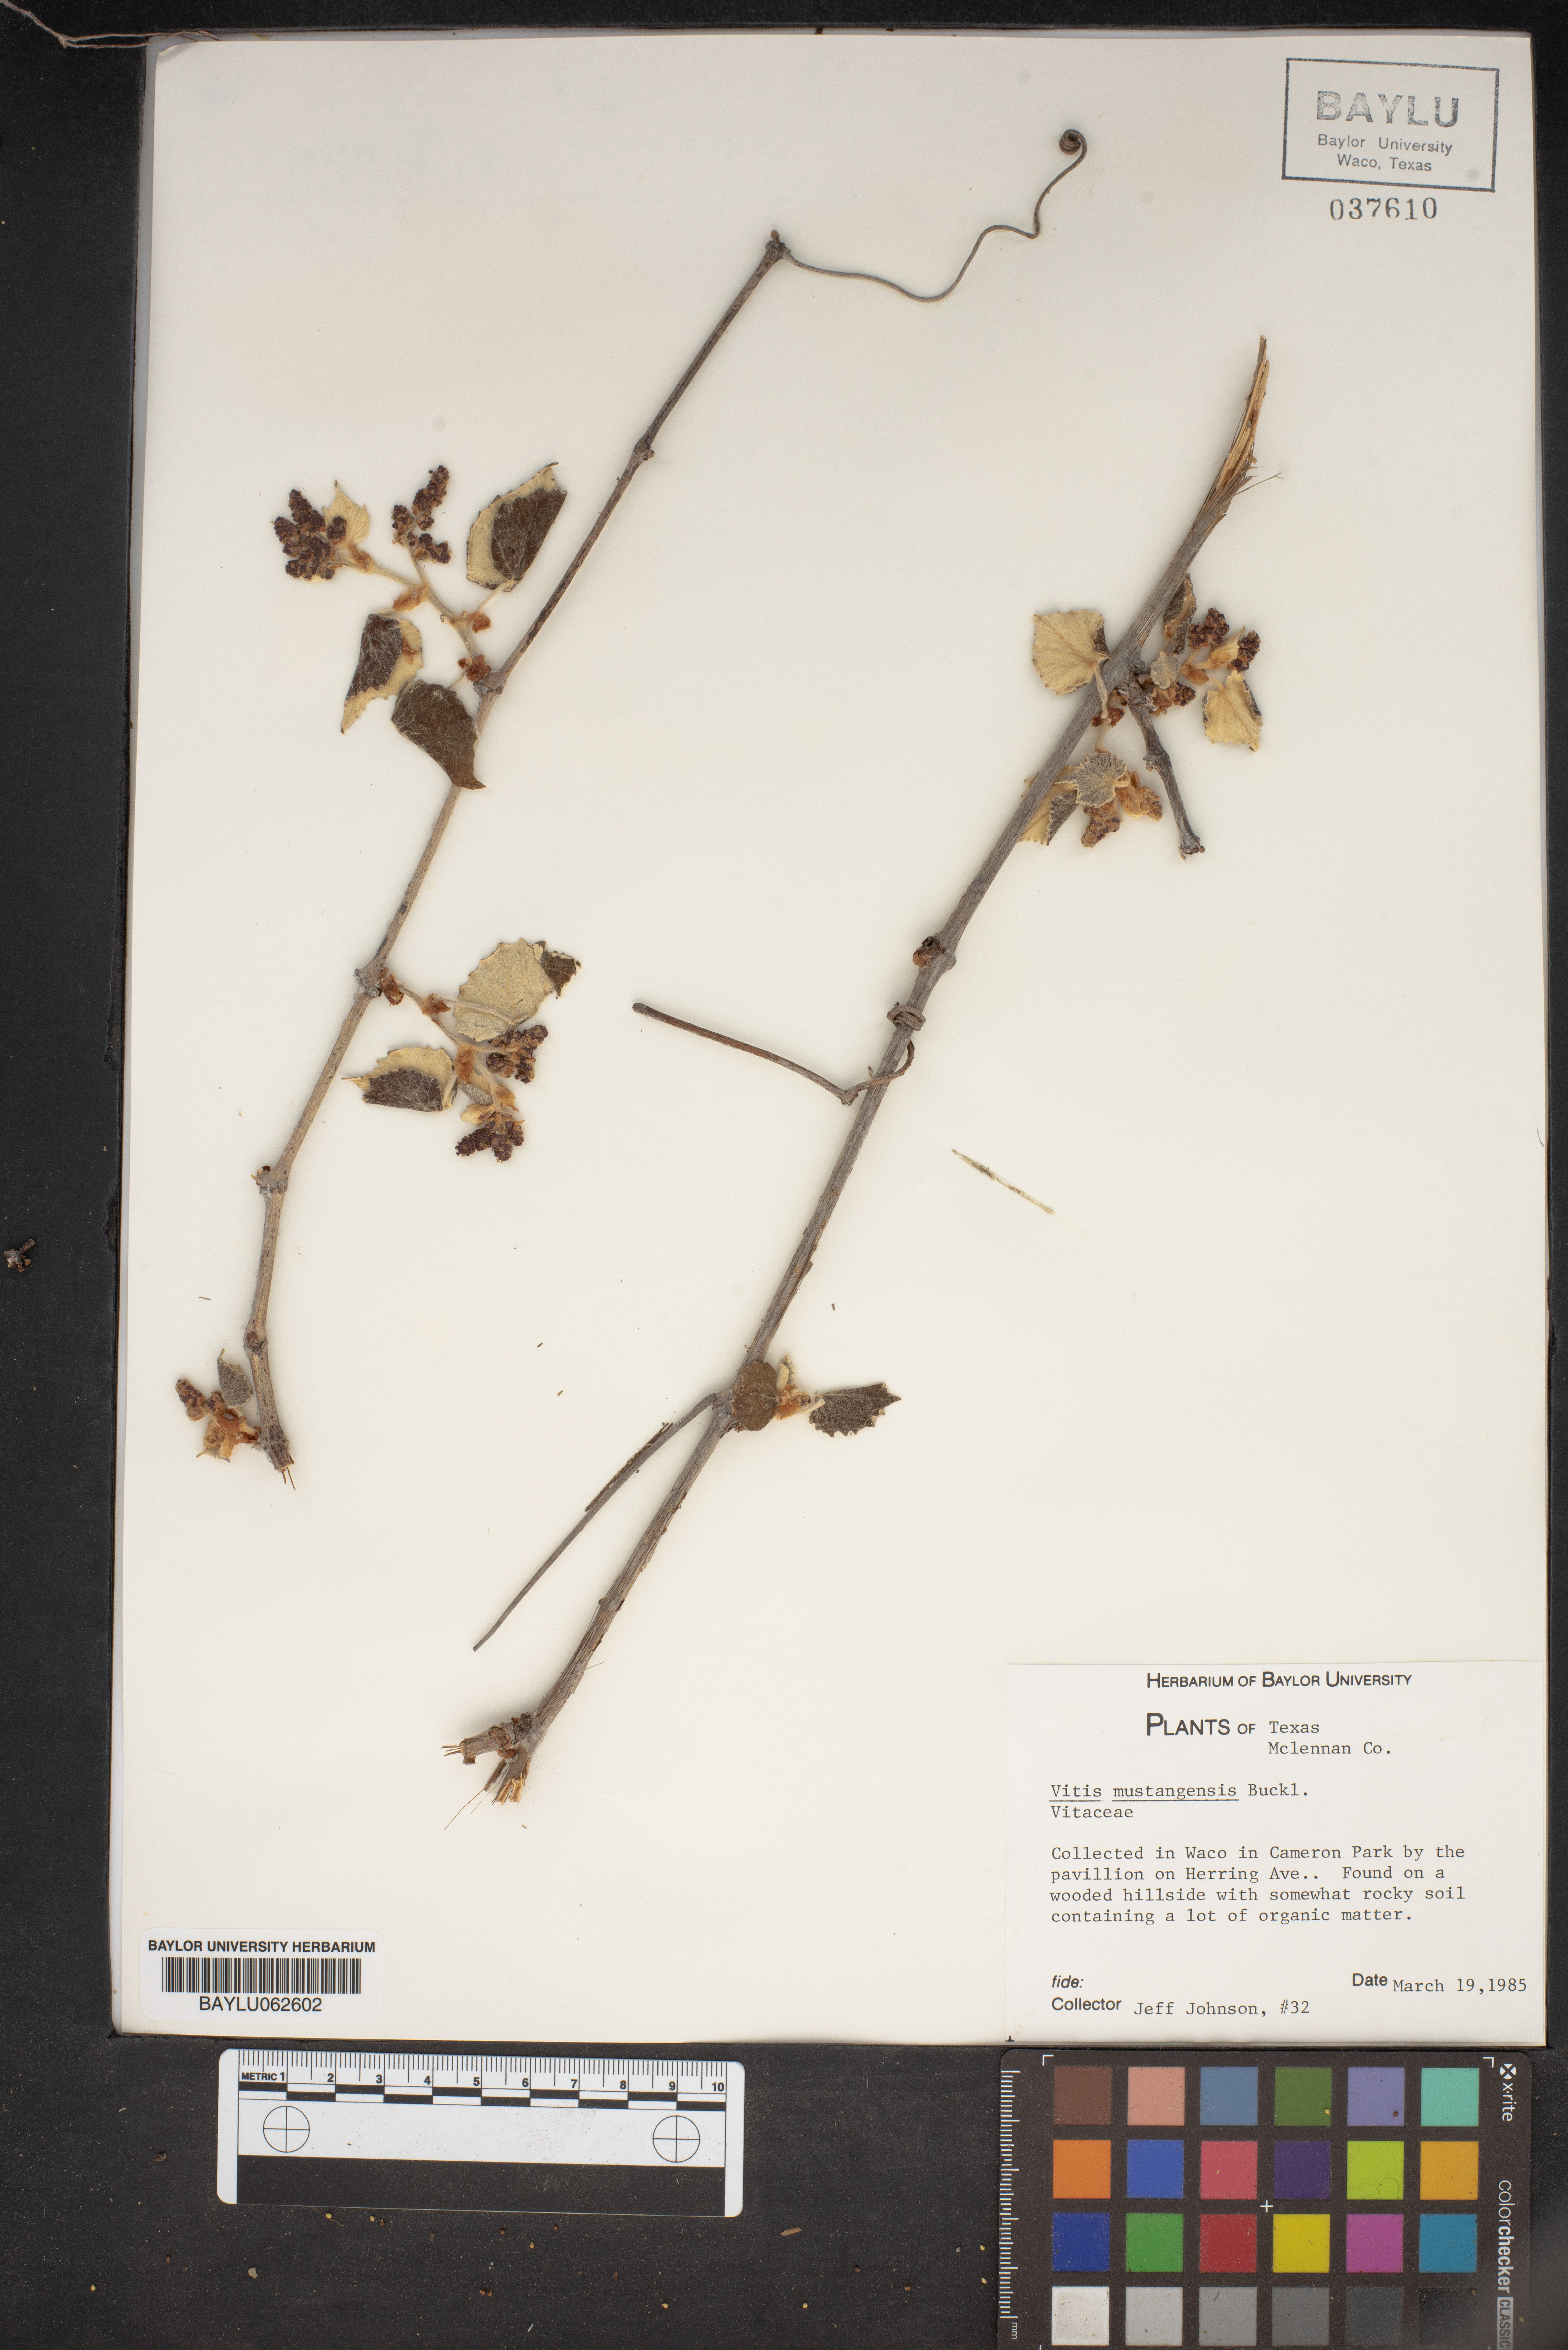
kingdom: Plantae
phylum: Tracheophyta
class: Magnoliopsida
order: Vitales
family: Vitaceae
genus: Vitis
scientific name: Vitis mustangensis
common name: Mustang grape
